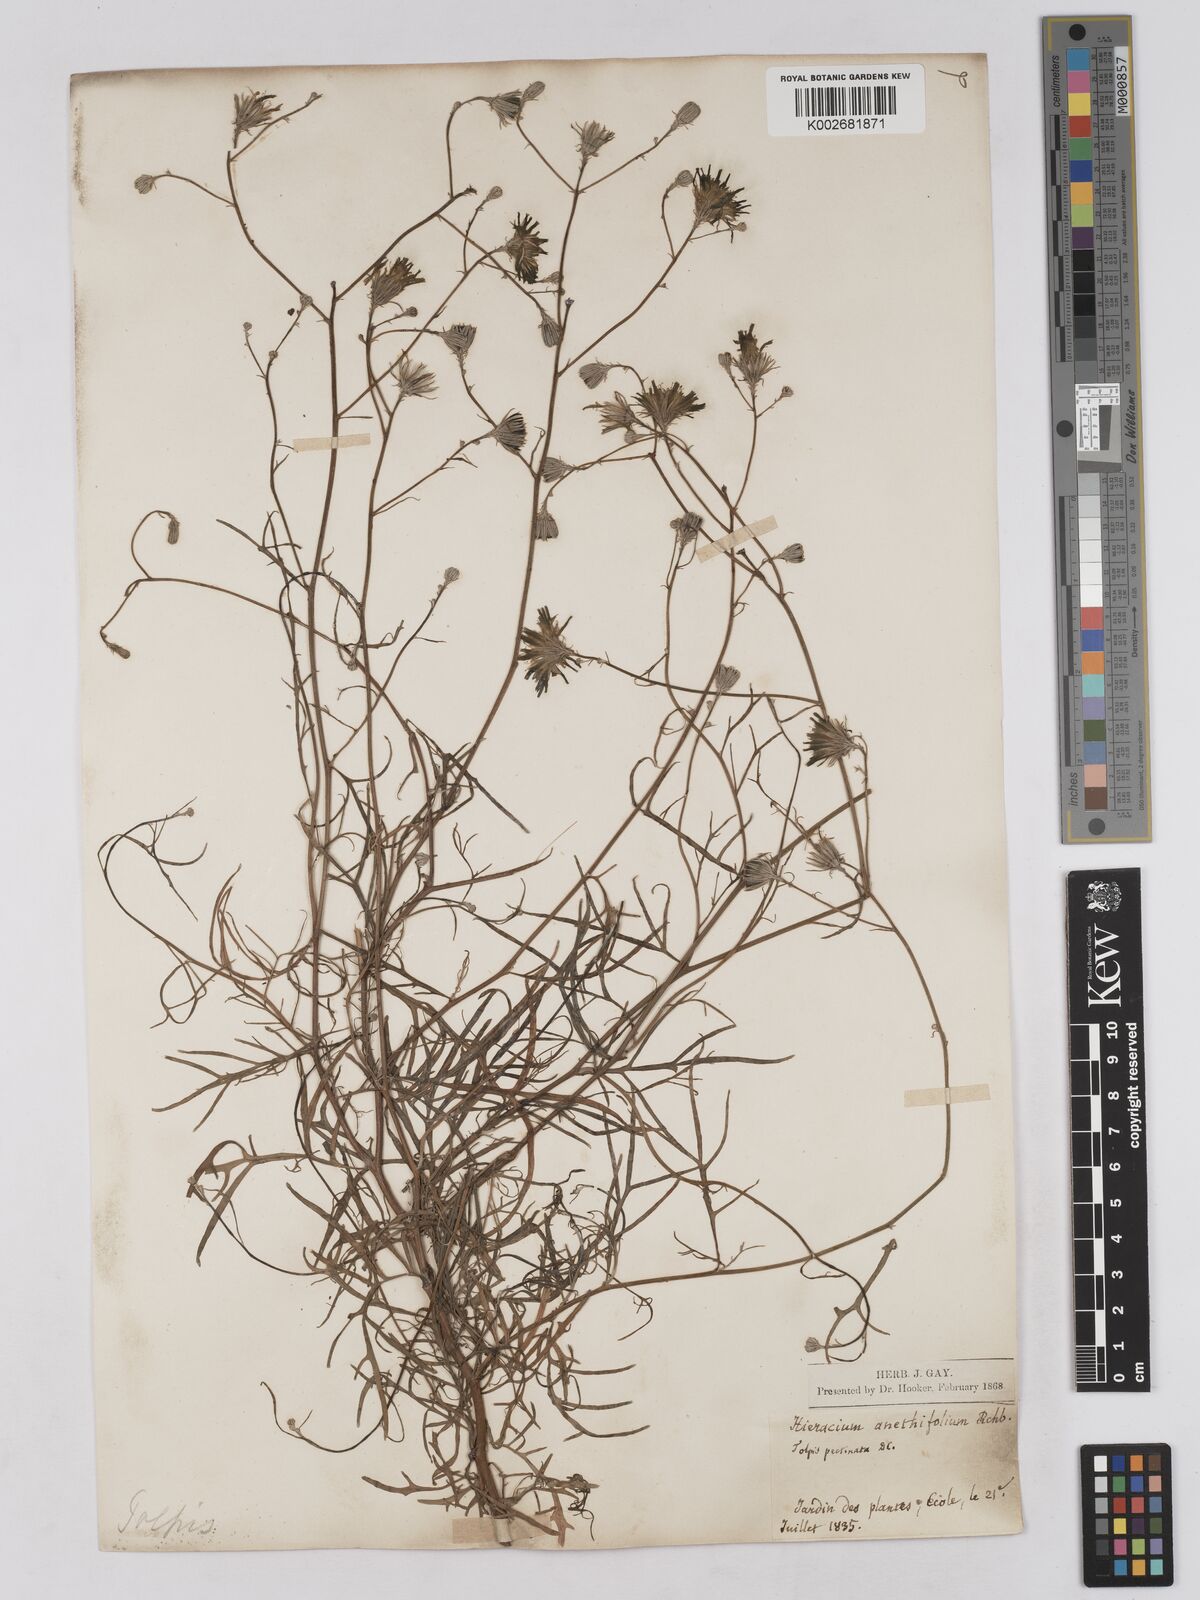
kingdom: Plantae
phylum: Tracheophyta
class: Magnoliopsida
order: Asterales
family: Asteraceae
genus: Tolpis
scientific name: Tolpis succulenta
